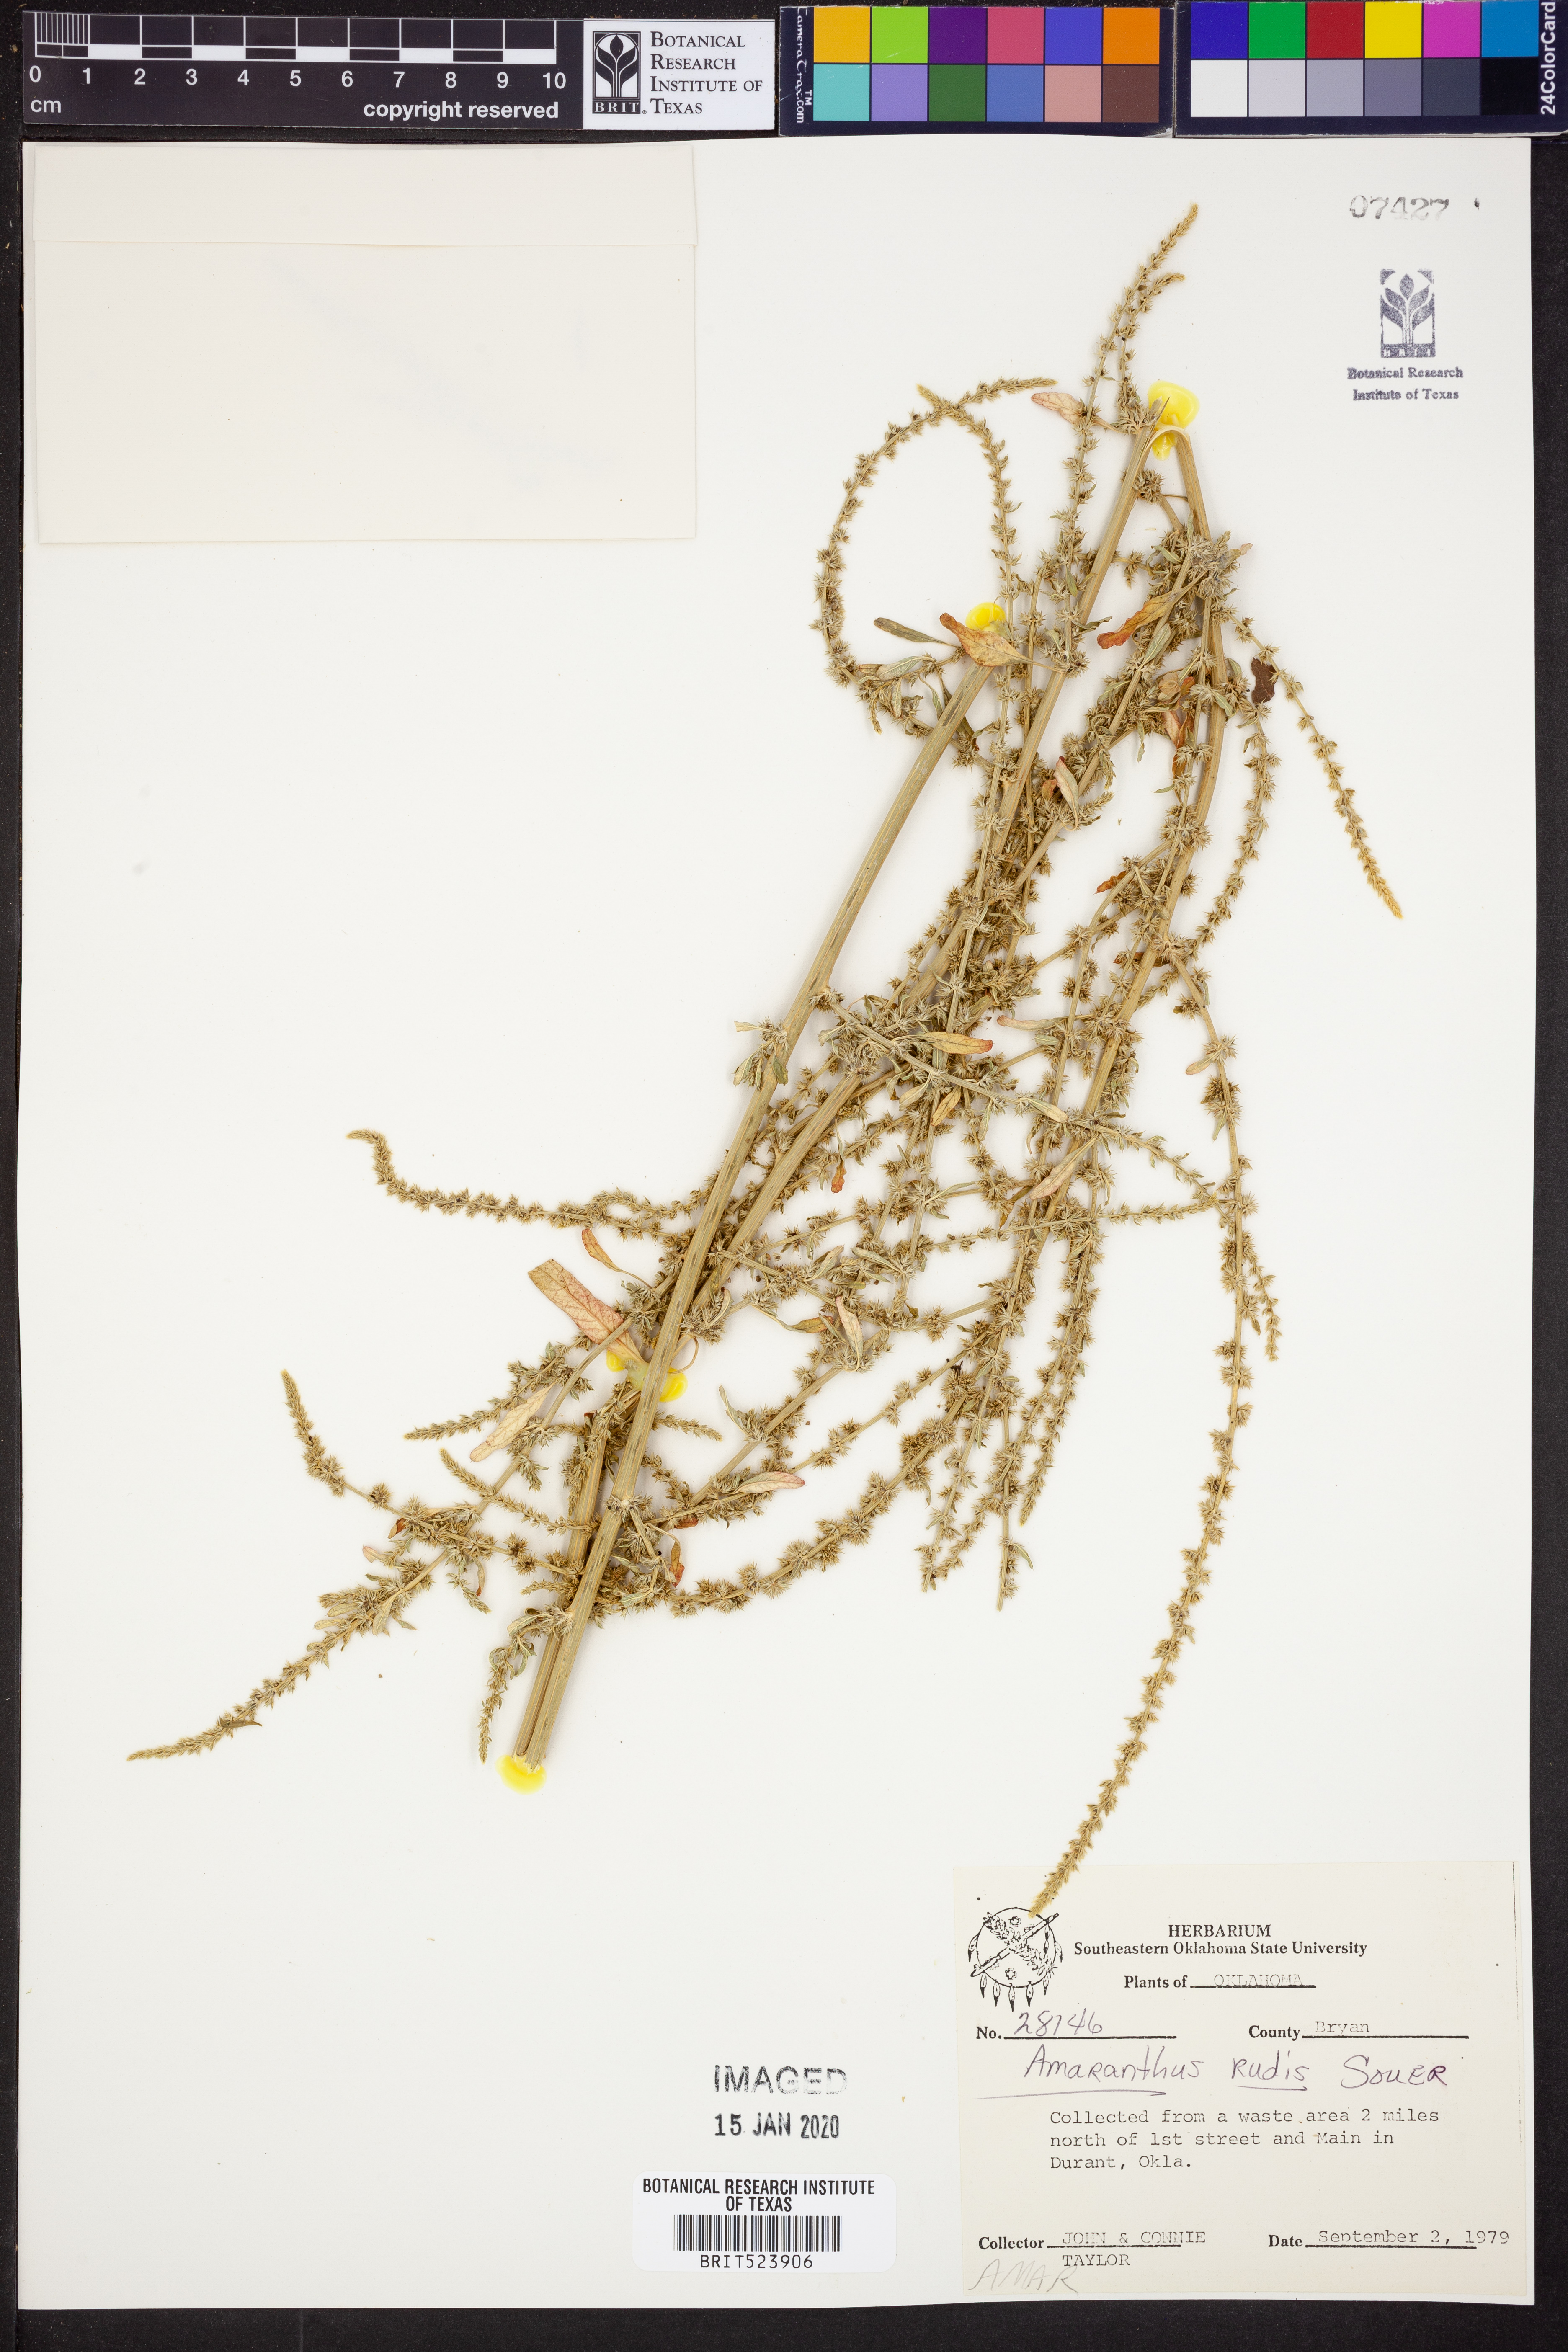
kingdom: Plantae
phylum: Tracheophyta
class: Magnoliopsida
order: Caryophyllales
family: Amaranthaceae
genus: Amaranthus
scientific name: Amaranthus tuberculatus
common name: Rough-fruit amaranth
